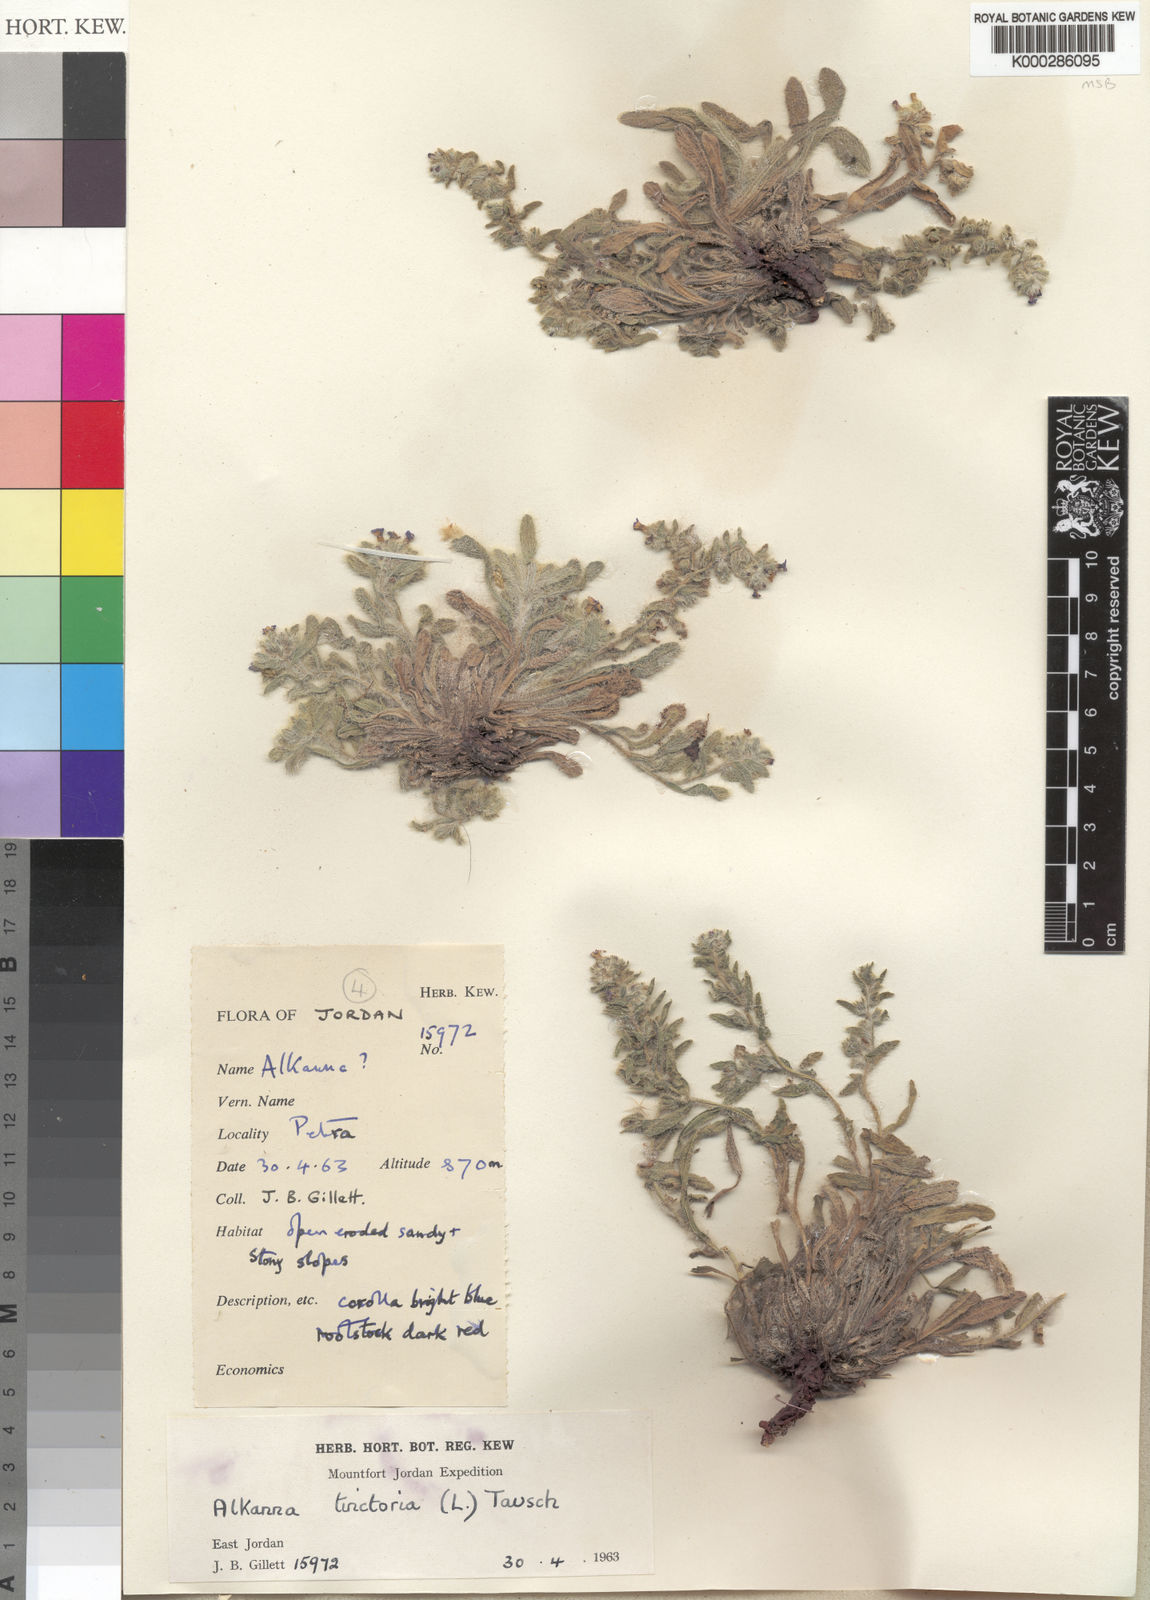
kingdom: Plantae
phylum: Tracheophyta
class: Magnoliopsida
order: Boraginales
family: Boraginaceae
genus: Alkanna
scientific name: Alkanna tinctoria
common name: Dyer's-alkanet
